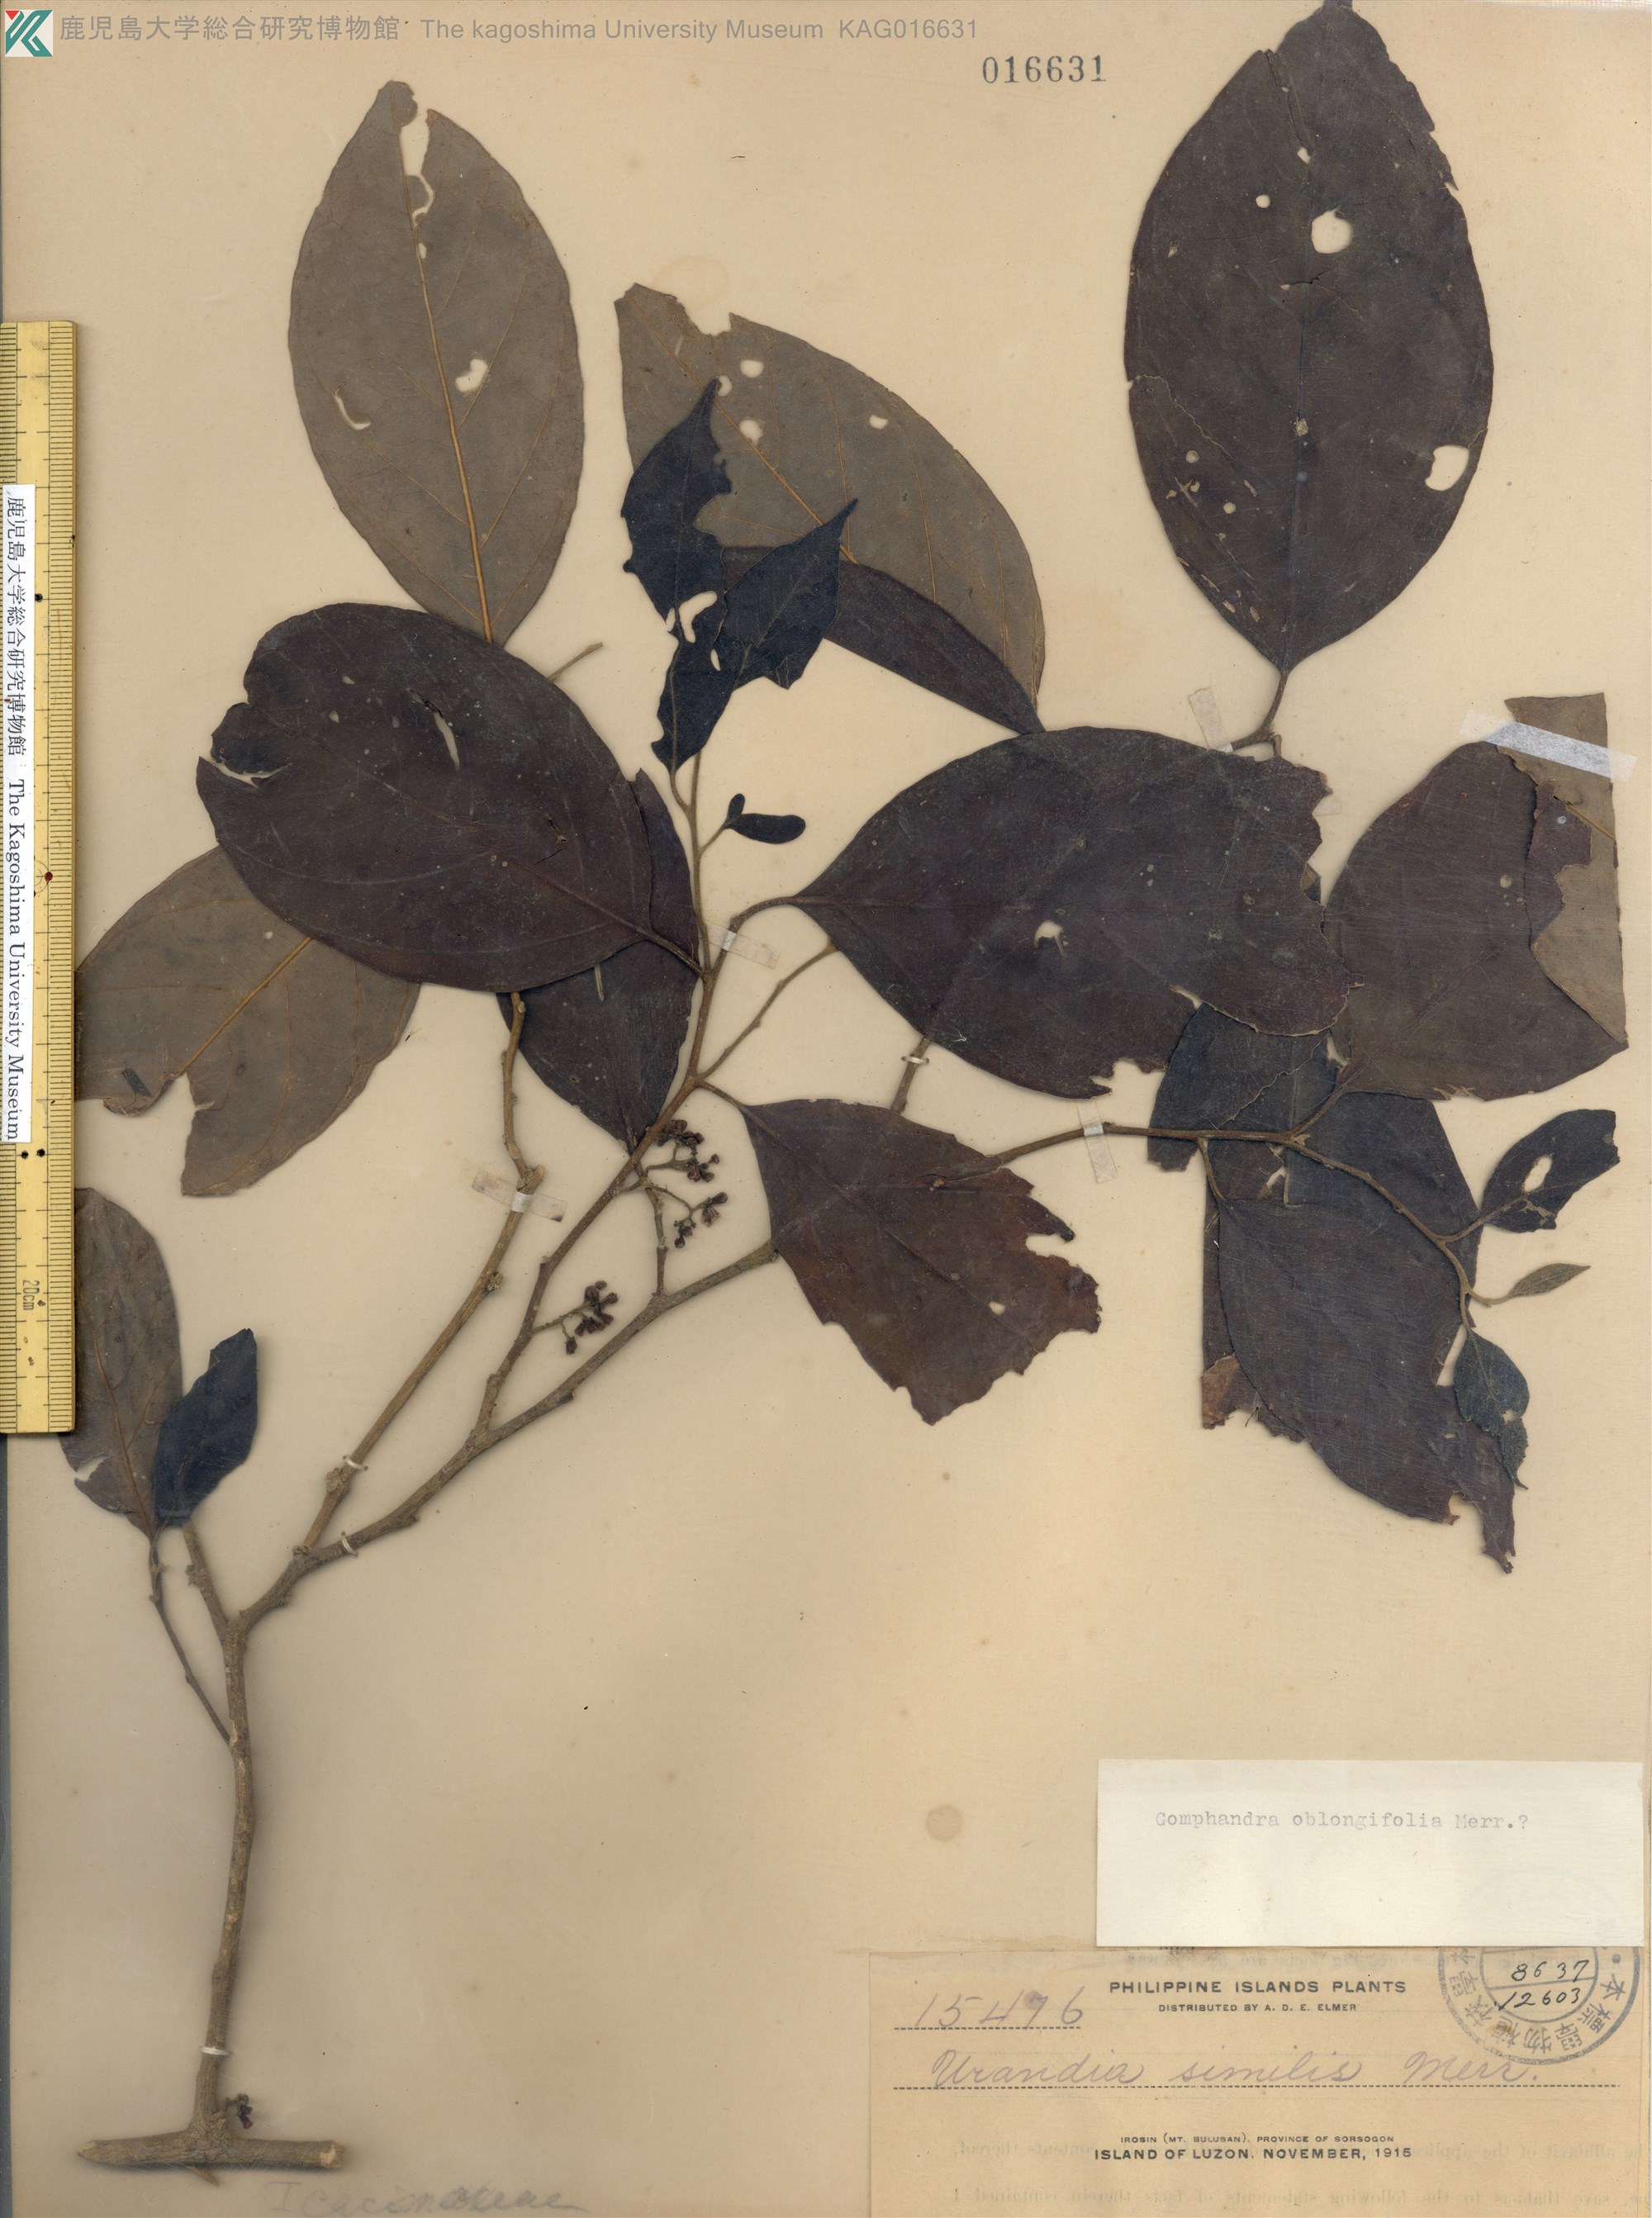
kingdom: Plantae
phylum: Tracheophyta
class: Magnoliopsida
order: Cardiopteridales
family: Stemonuraceae
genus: Gomphandra
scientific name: Gomphandra oblongifolia
